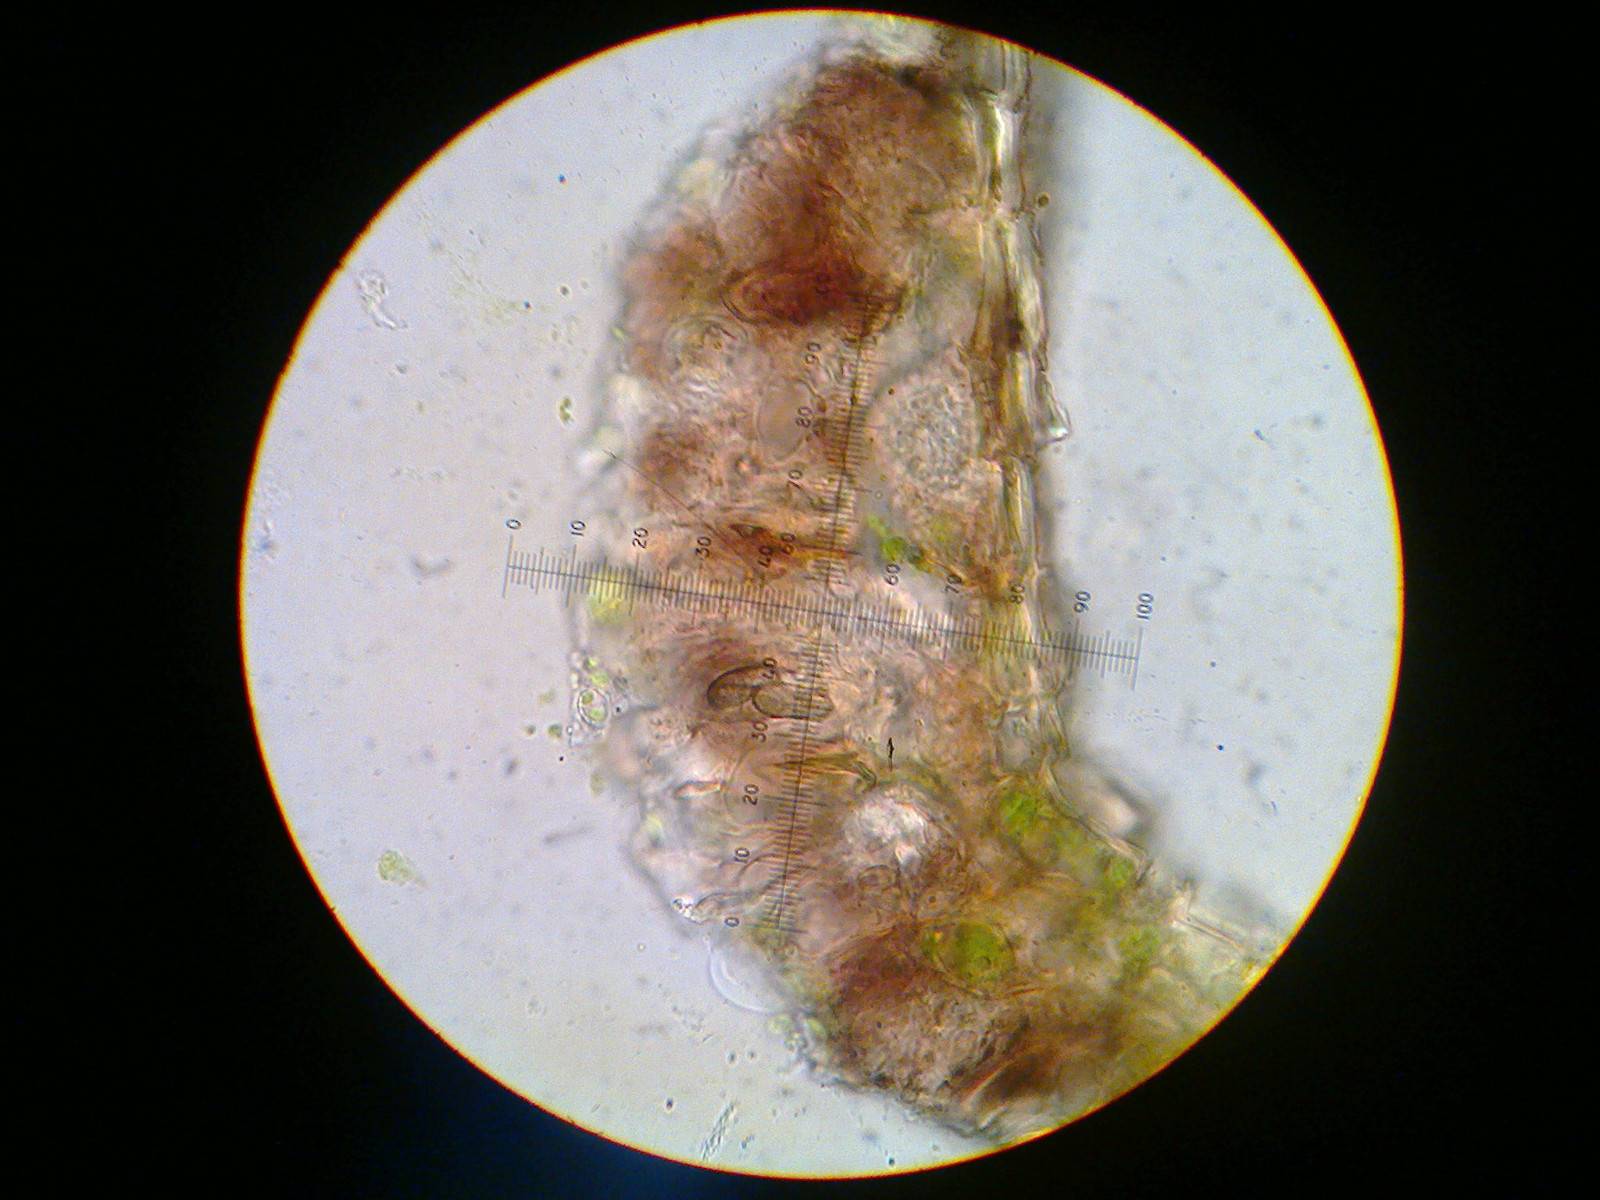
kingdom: Fungi
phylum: Ascomycota
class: Arthoniomycetes
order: Arthoniales
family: Arthoniaceae
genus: Arthonia
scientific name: Arthonia didyma
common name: oliven-pletlav
